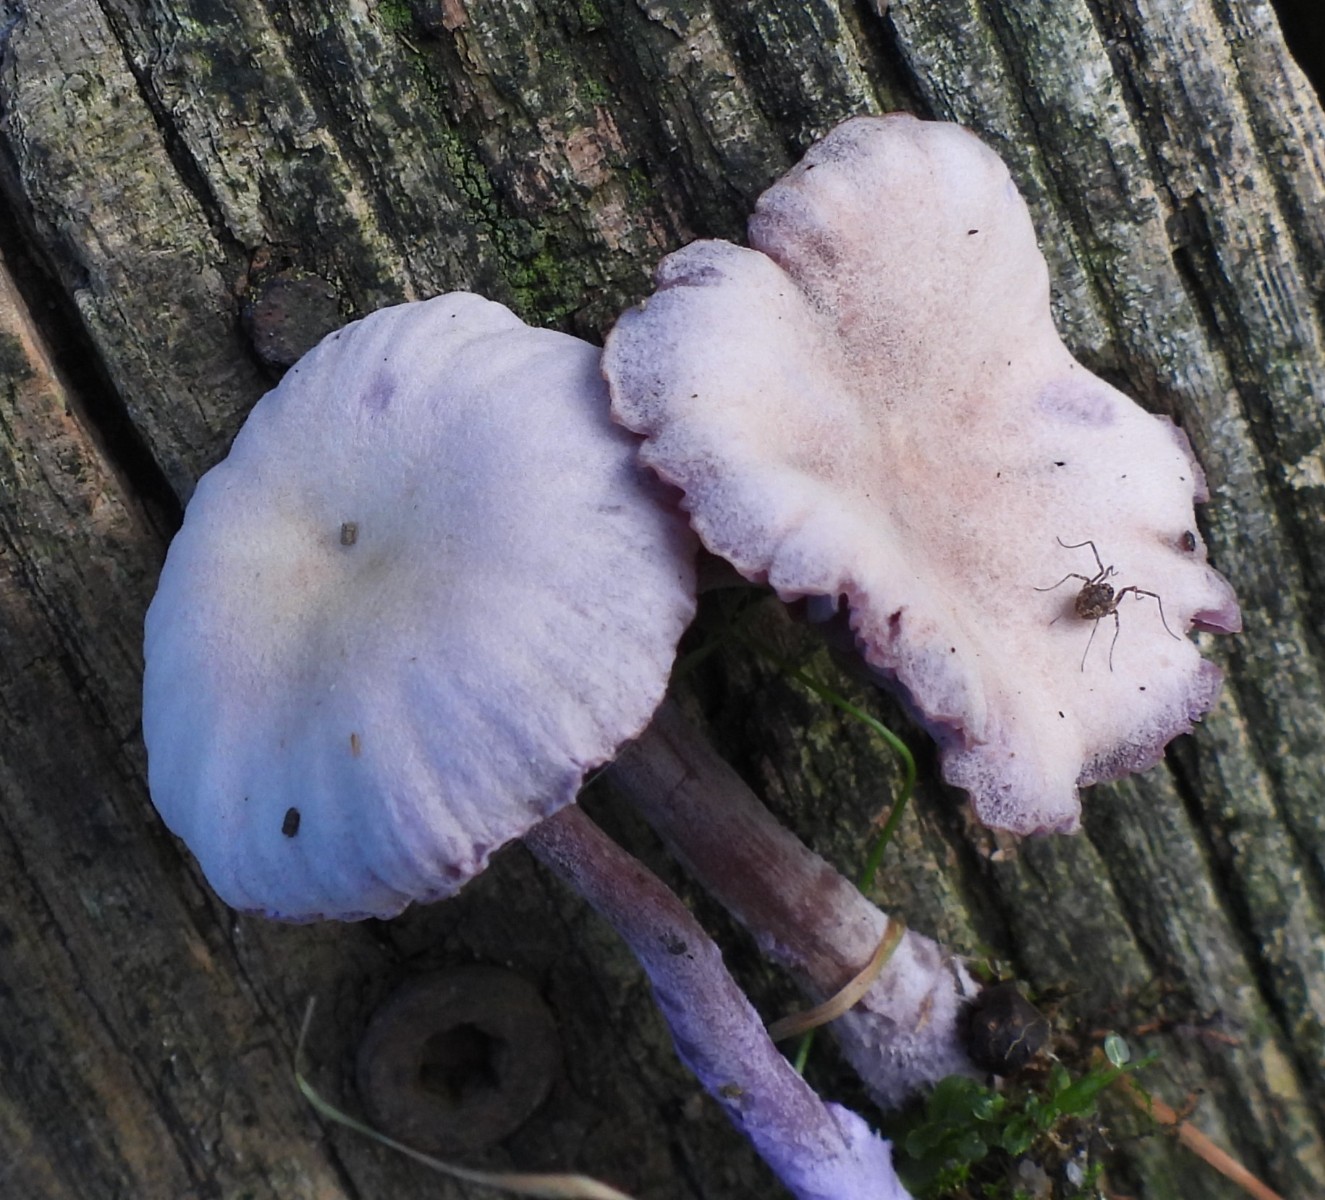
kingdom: Fungi
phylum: Basidiomycota
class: Agaricomycetes
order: Agaricales
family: Hydnangiaceae
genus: Laccaria
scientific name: Laccaria amethystina
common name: violet ametysthat
